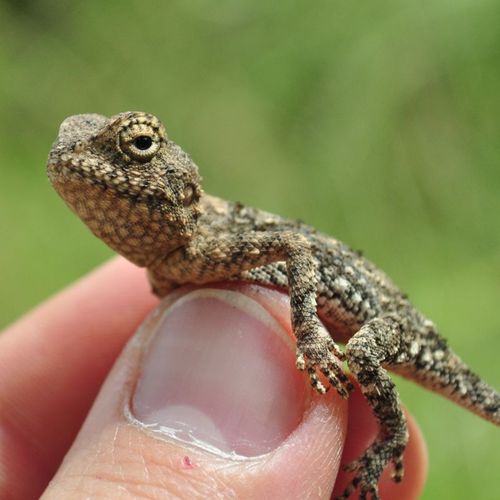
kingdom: Animalia
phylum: Chordata
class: Squamata
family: Agamidae
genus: Agama
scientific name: Agama armata
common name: Northern ground agama
